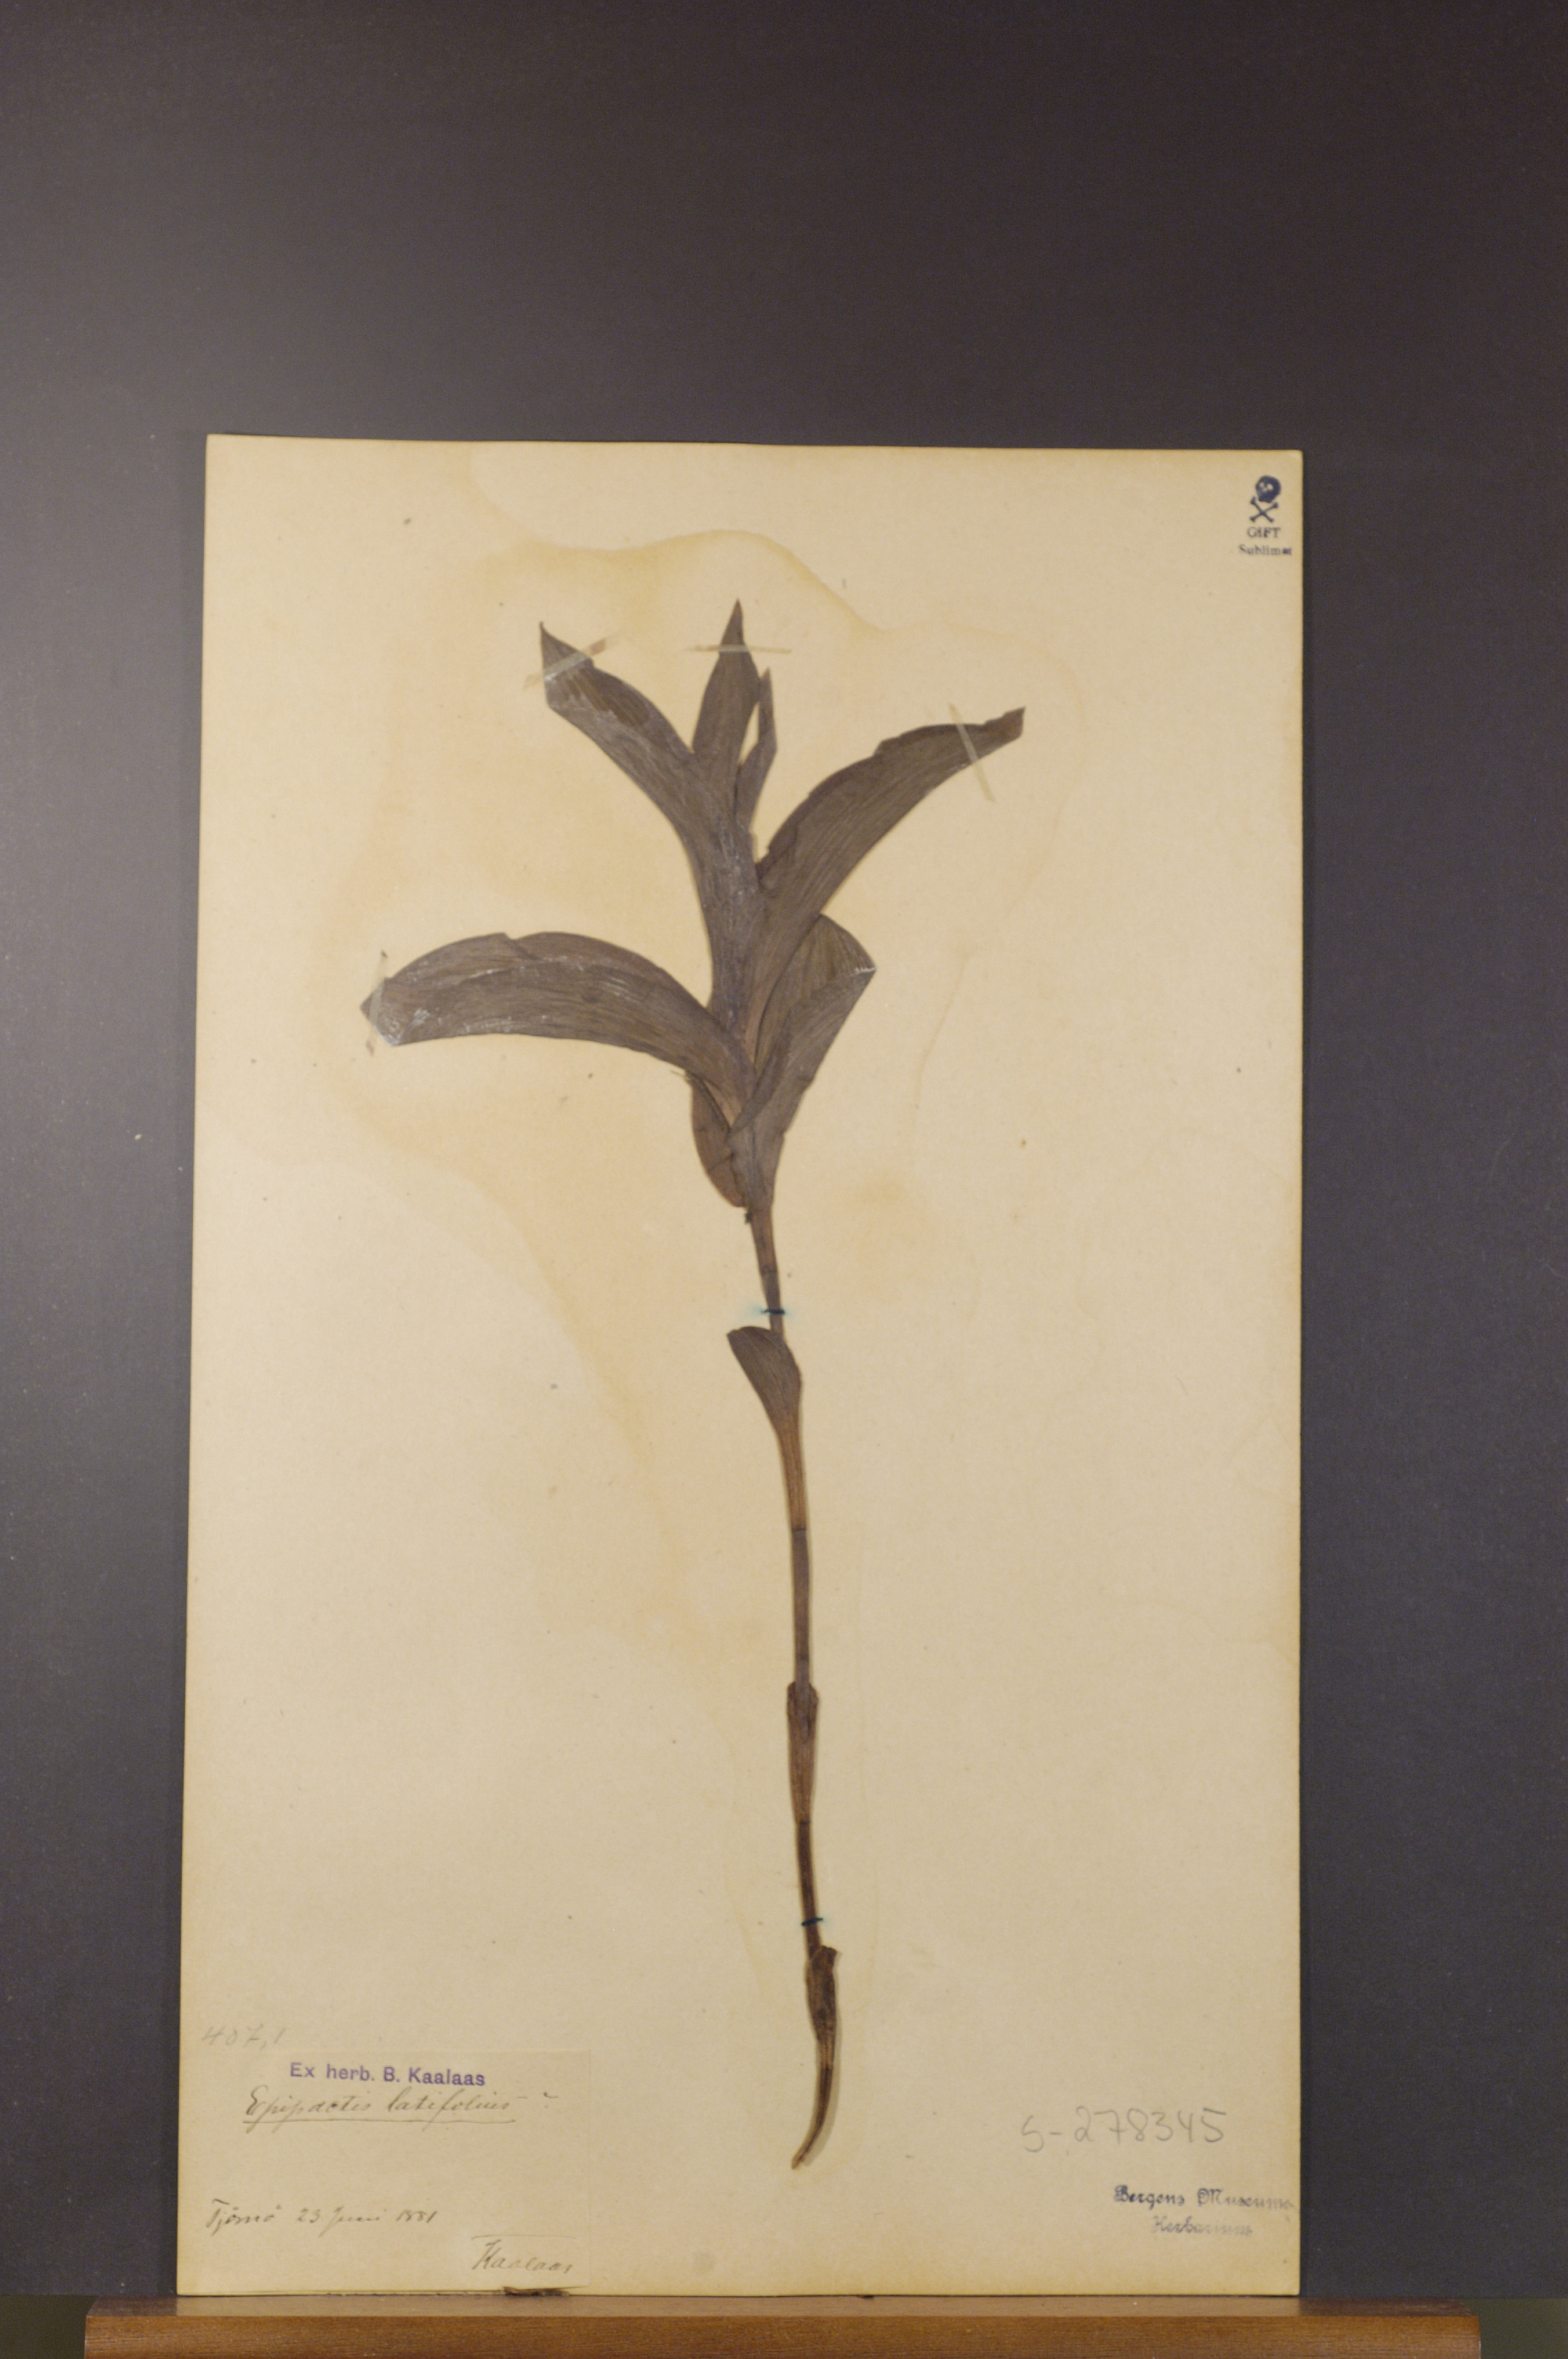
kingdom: Plantae
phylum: Tracheophyta
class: Liliopsida
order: Asparagales
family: Orchidaceae
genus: Epipactis
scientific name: Epipactis helleborine
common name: Broad-leaved helleborine
